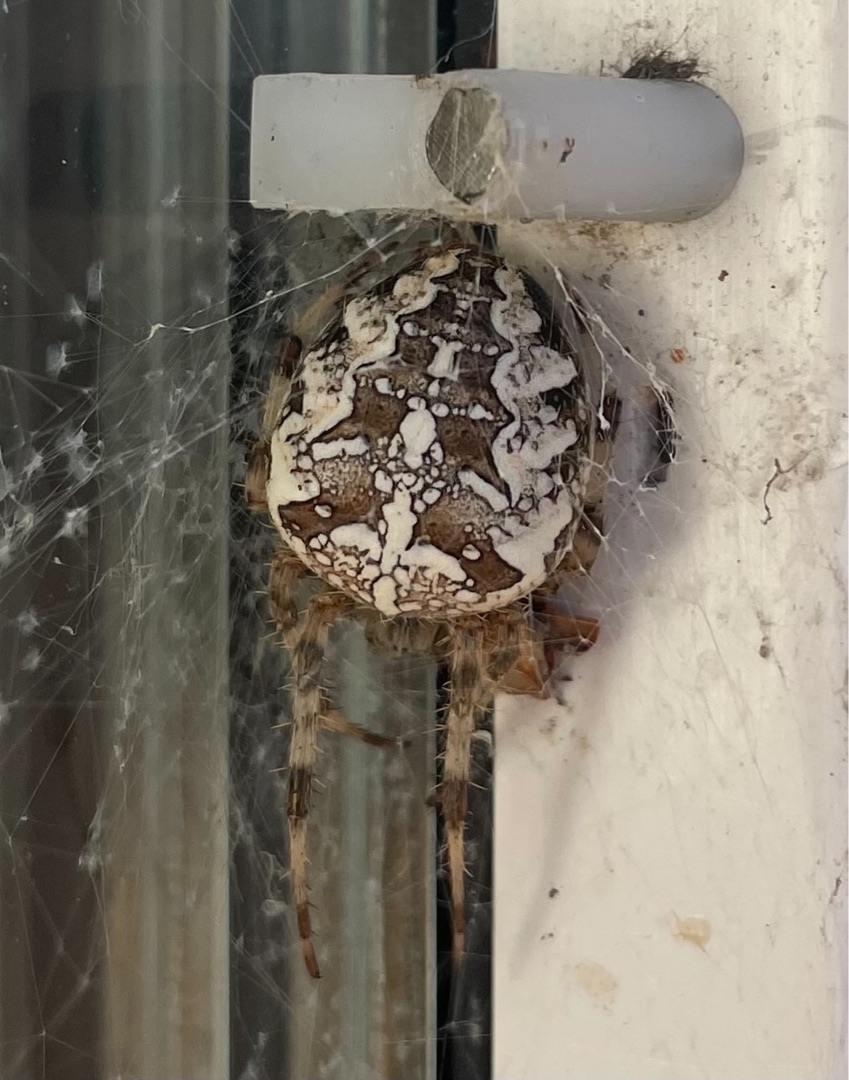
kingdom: Animalia
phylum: Arthropoda
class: Arachnida
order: Araneae
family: Araneidae
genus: Araneus
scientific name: Araneus diadematus
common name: Korsedderkop
